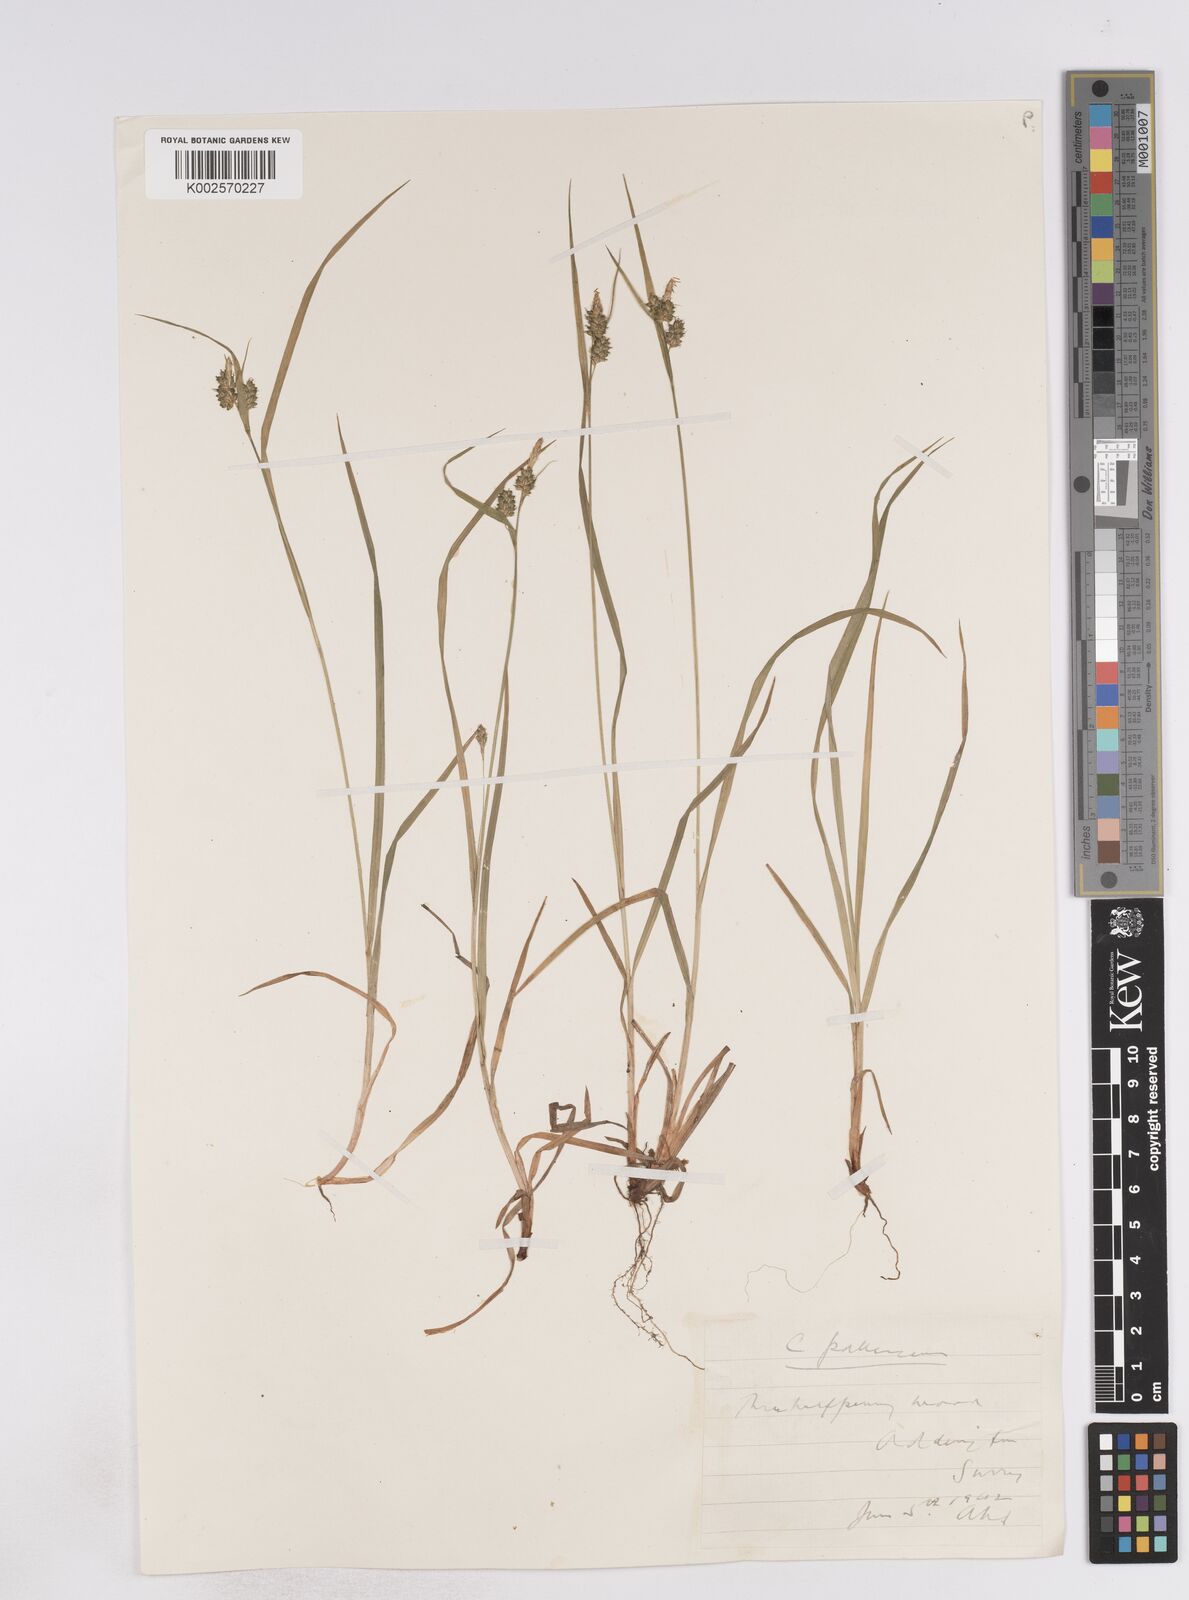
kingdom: Plantae
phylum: Tracheophyta
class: Liliopsida
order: Poales
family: Cyperaceae
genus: Carex
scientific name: Carex pallescens
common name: Pale sedge
